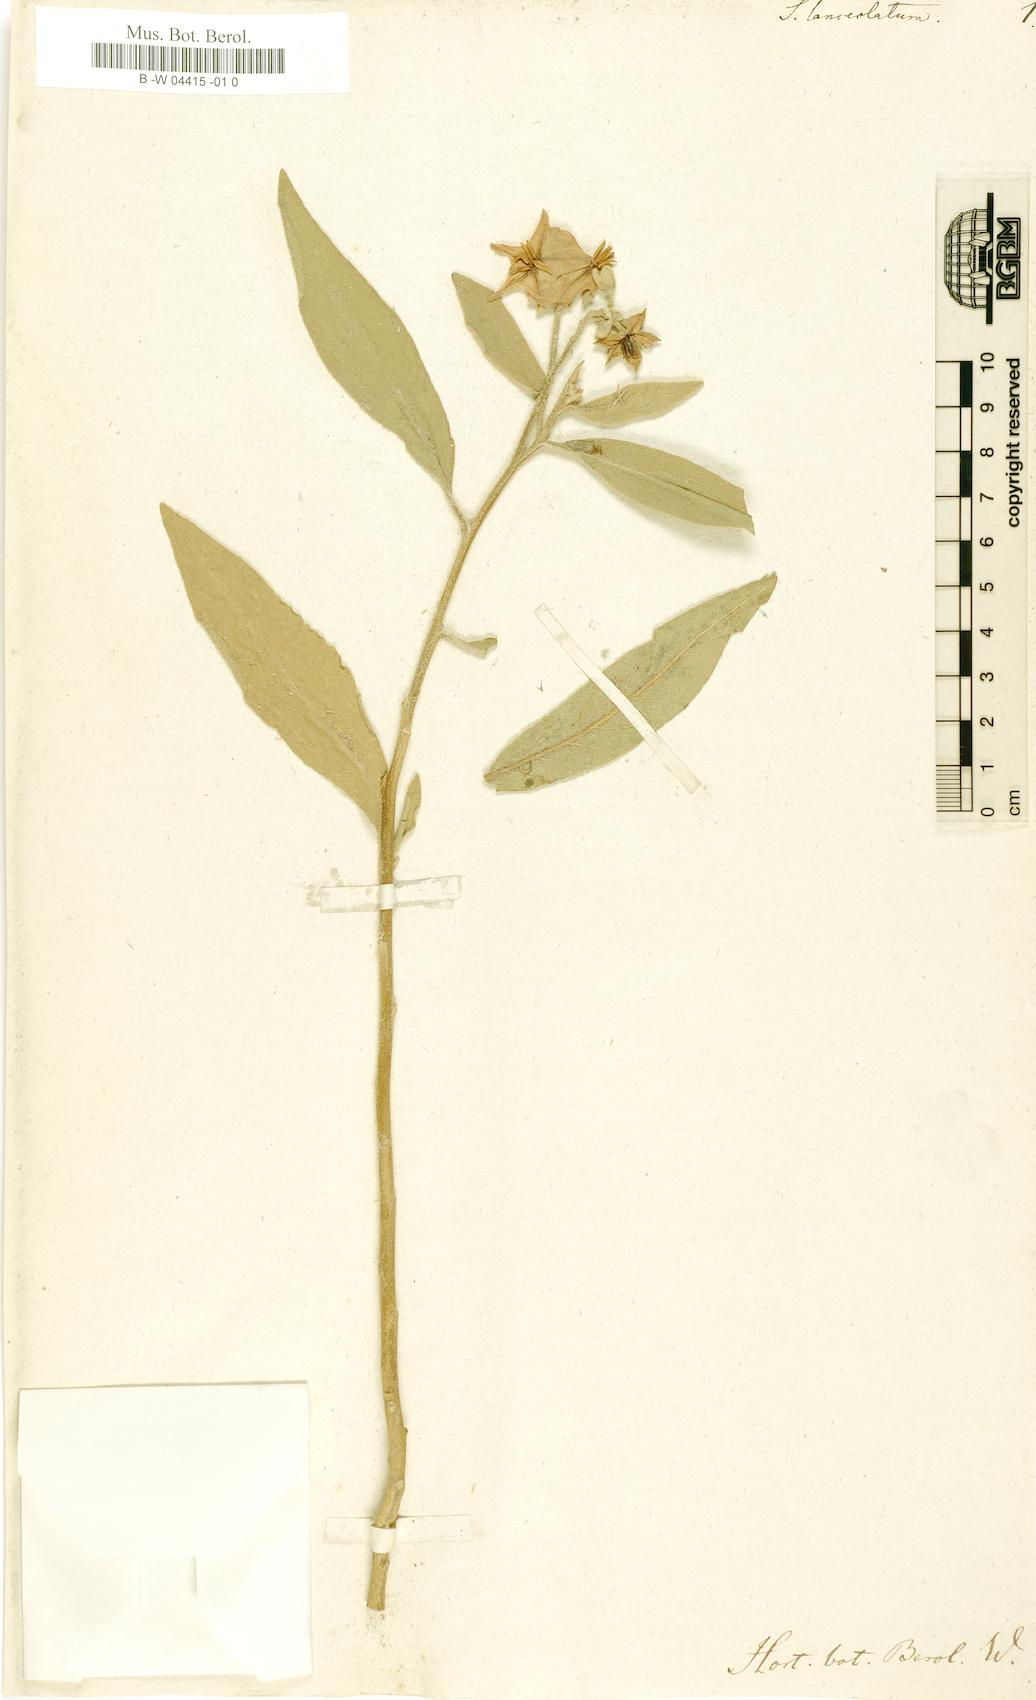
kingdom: Plantae
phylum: Tracheophyta
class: Magnoliopsida
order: Solanales
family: Solanaceae
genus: Solanum
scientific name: Solanum lanceolatum
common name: Orangeberry nightshade
